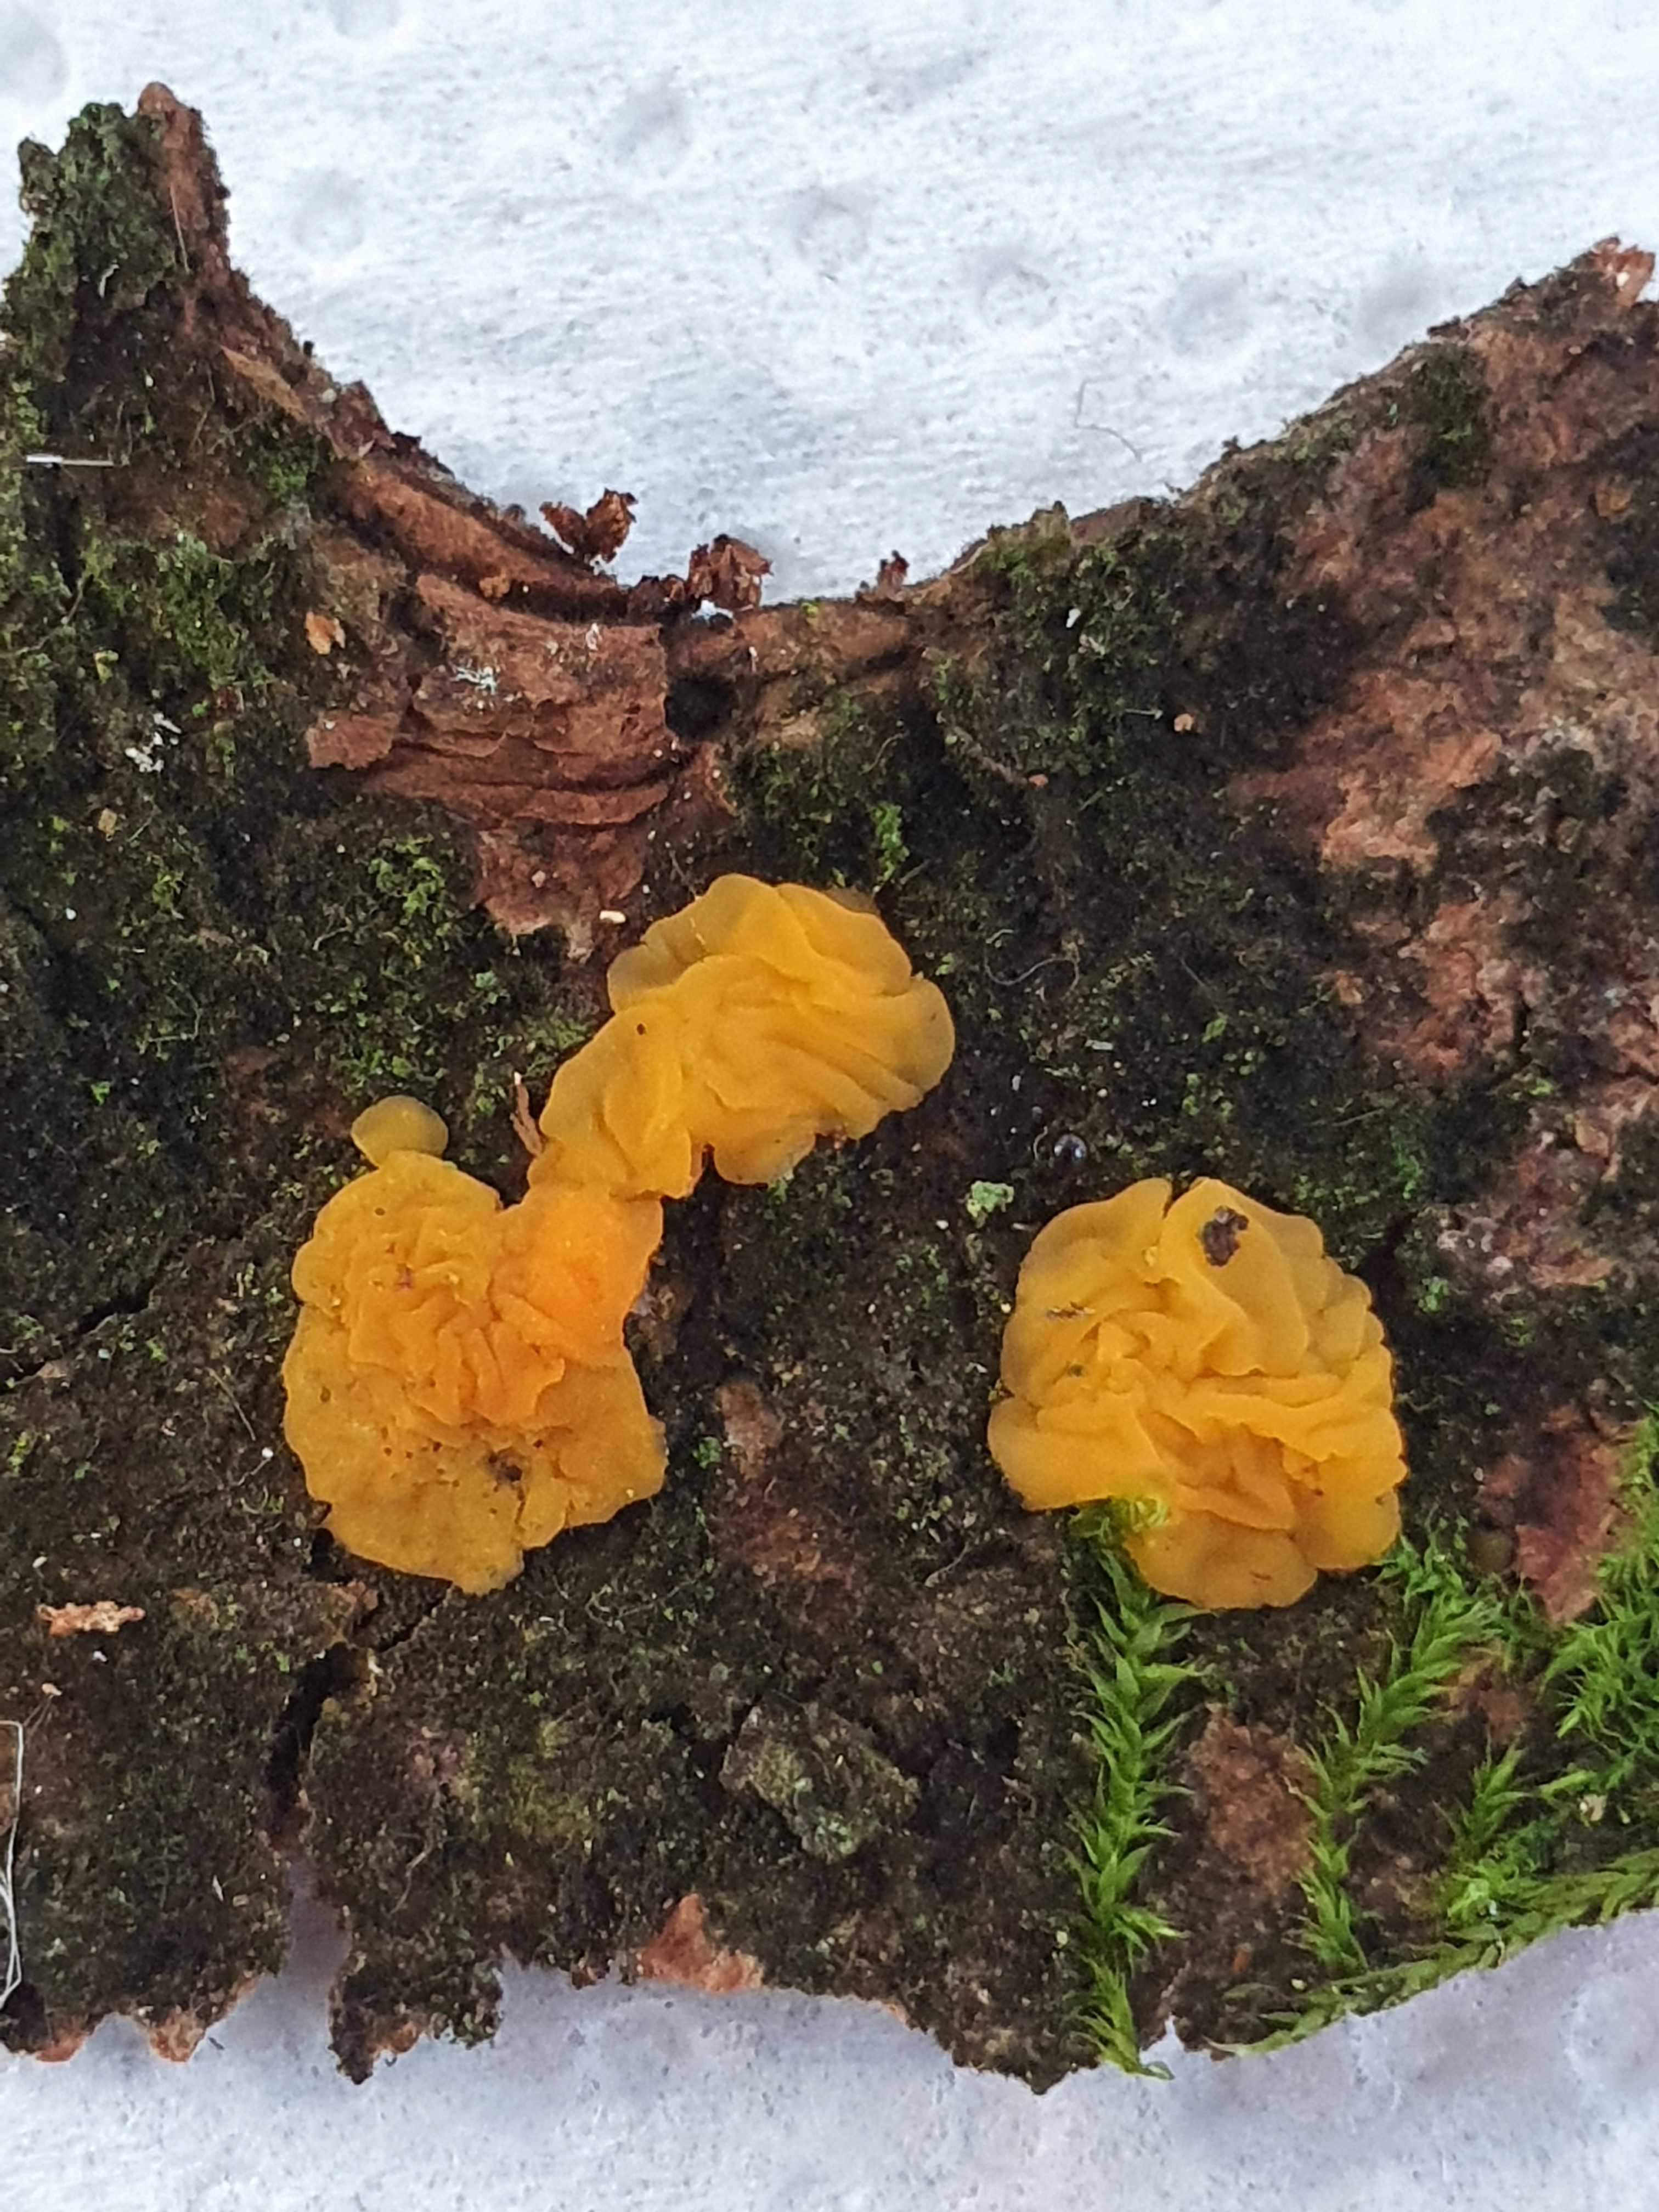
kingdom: Fungi
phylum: Basidiomycota
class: Dacrymycetes
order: Dacrymycetales
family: Dacrymycetaceae
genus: Dacrymyces
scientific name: Dacrymyces
